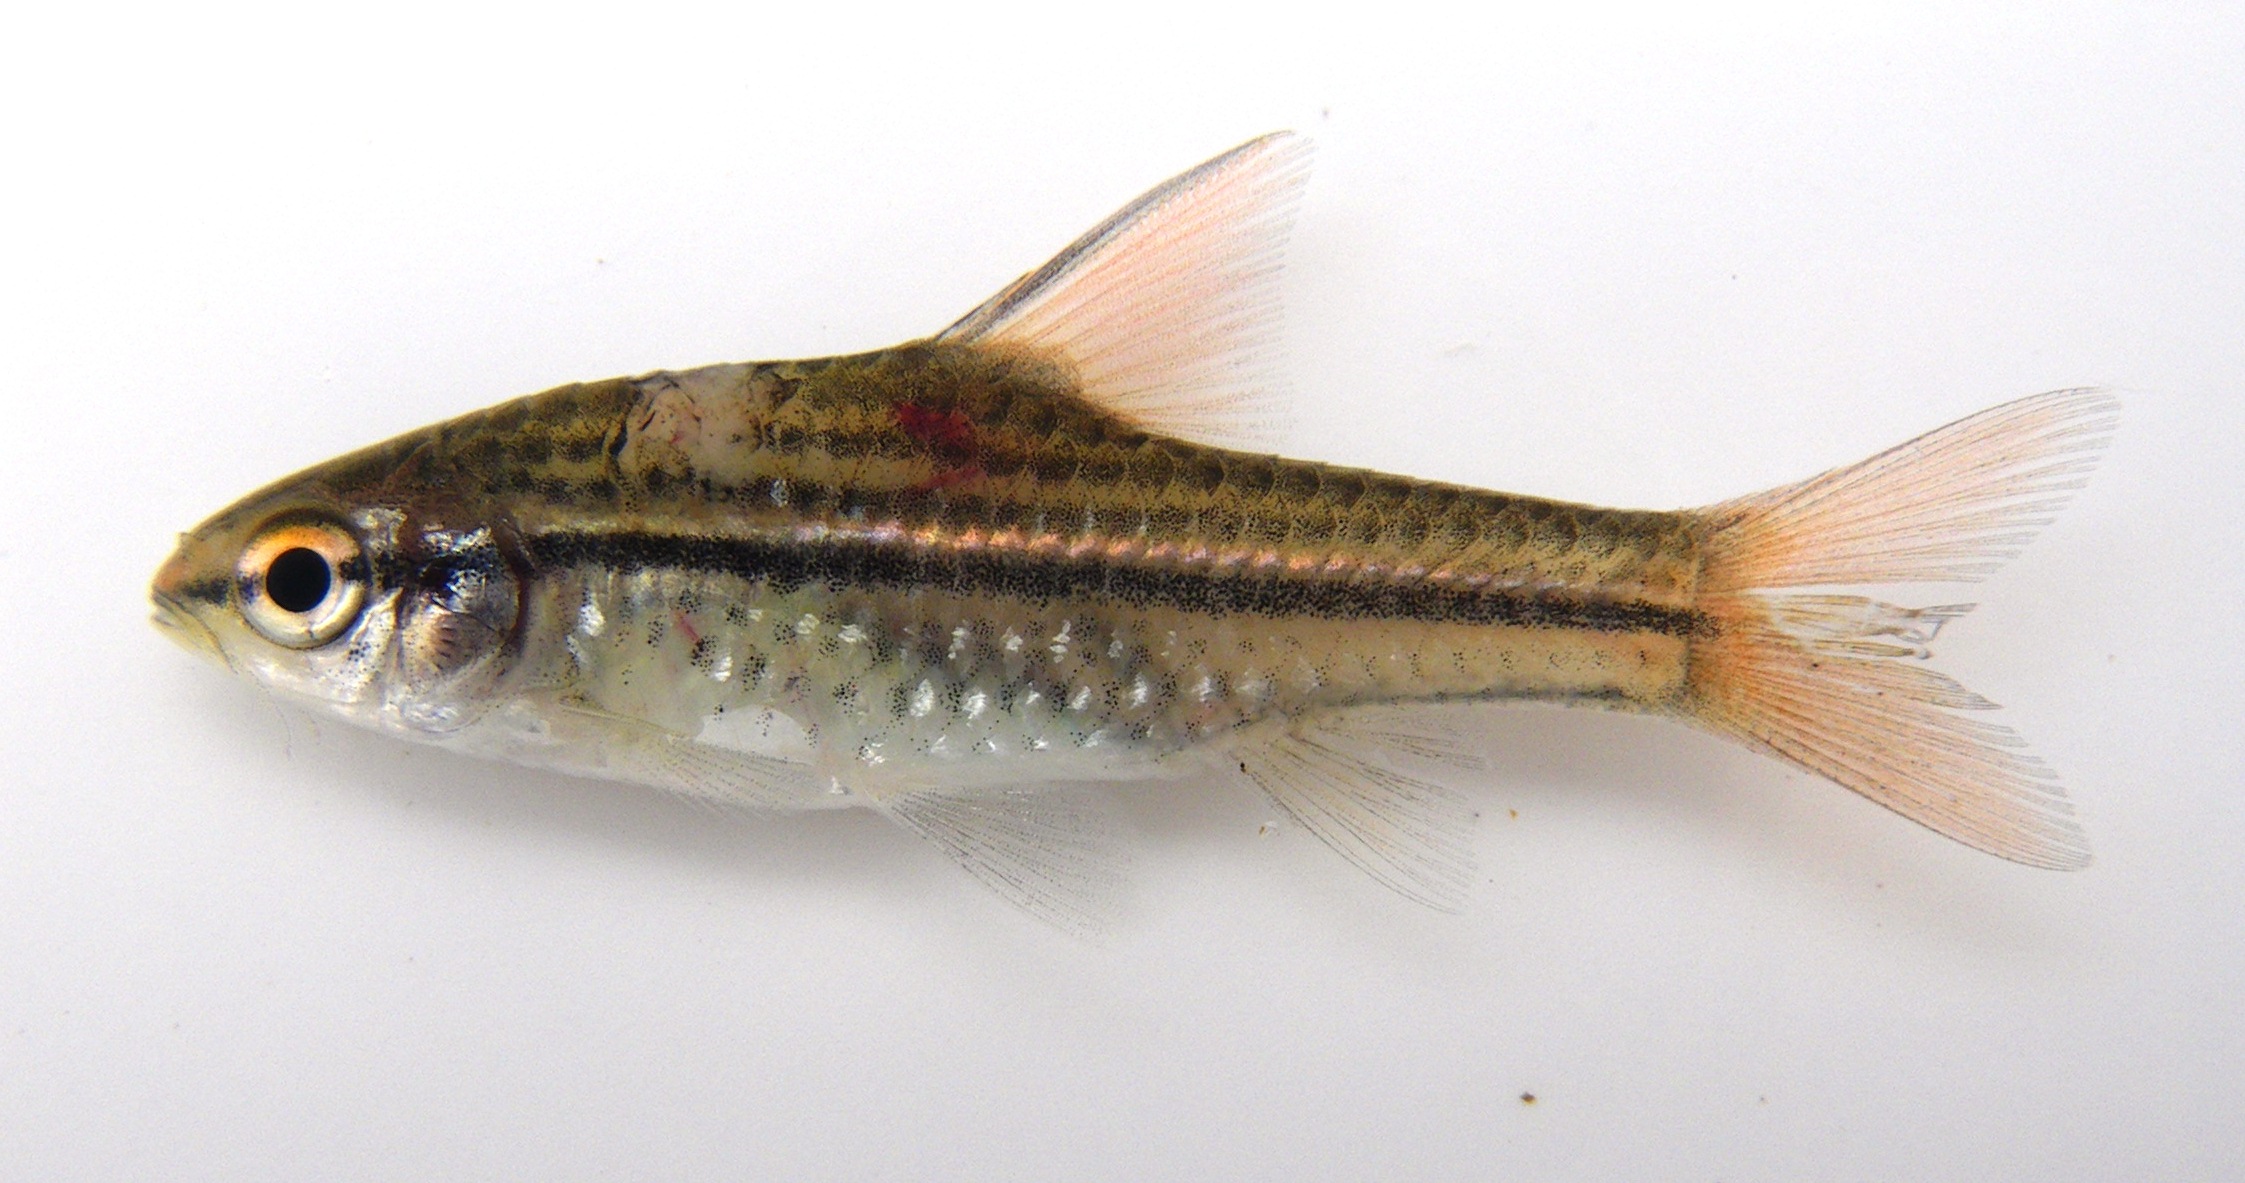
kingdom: Animalia
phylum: Chordata
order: Cypriniformes
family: Cyprinidae
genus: Enteromius
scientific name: Enteromius multilineatus
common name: Copperstripe barb
